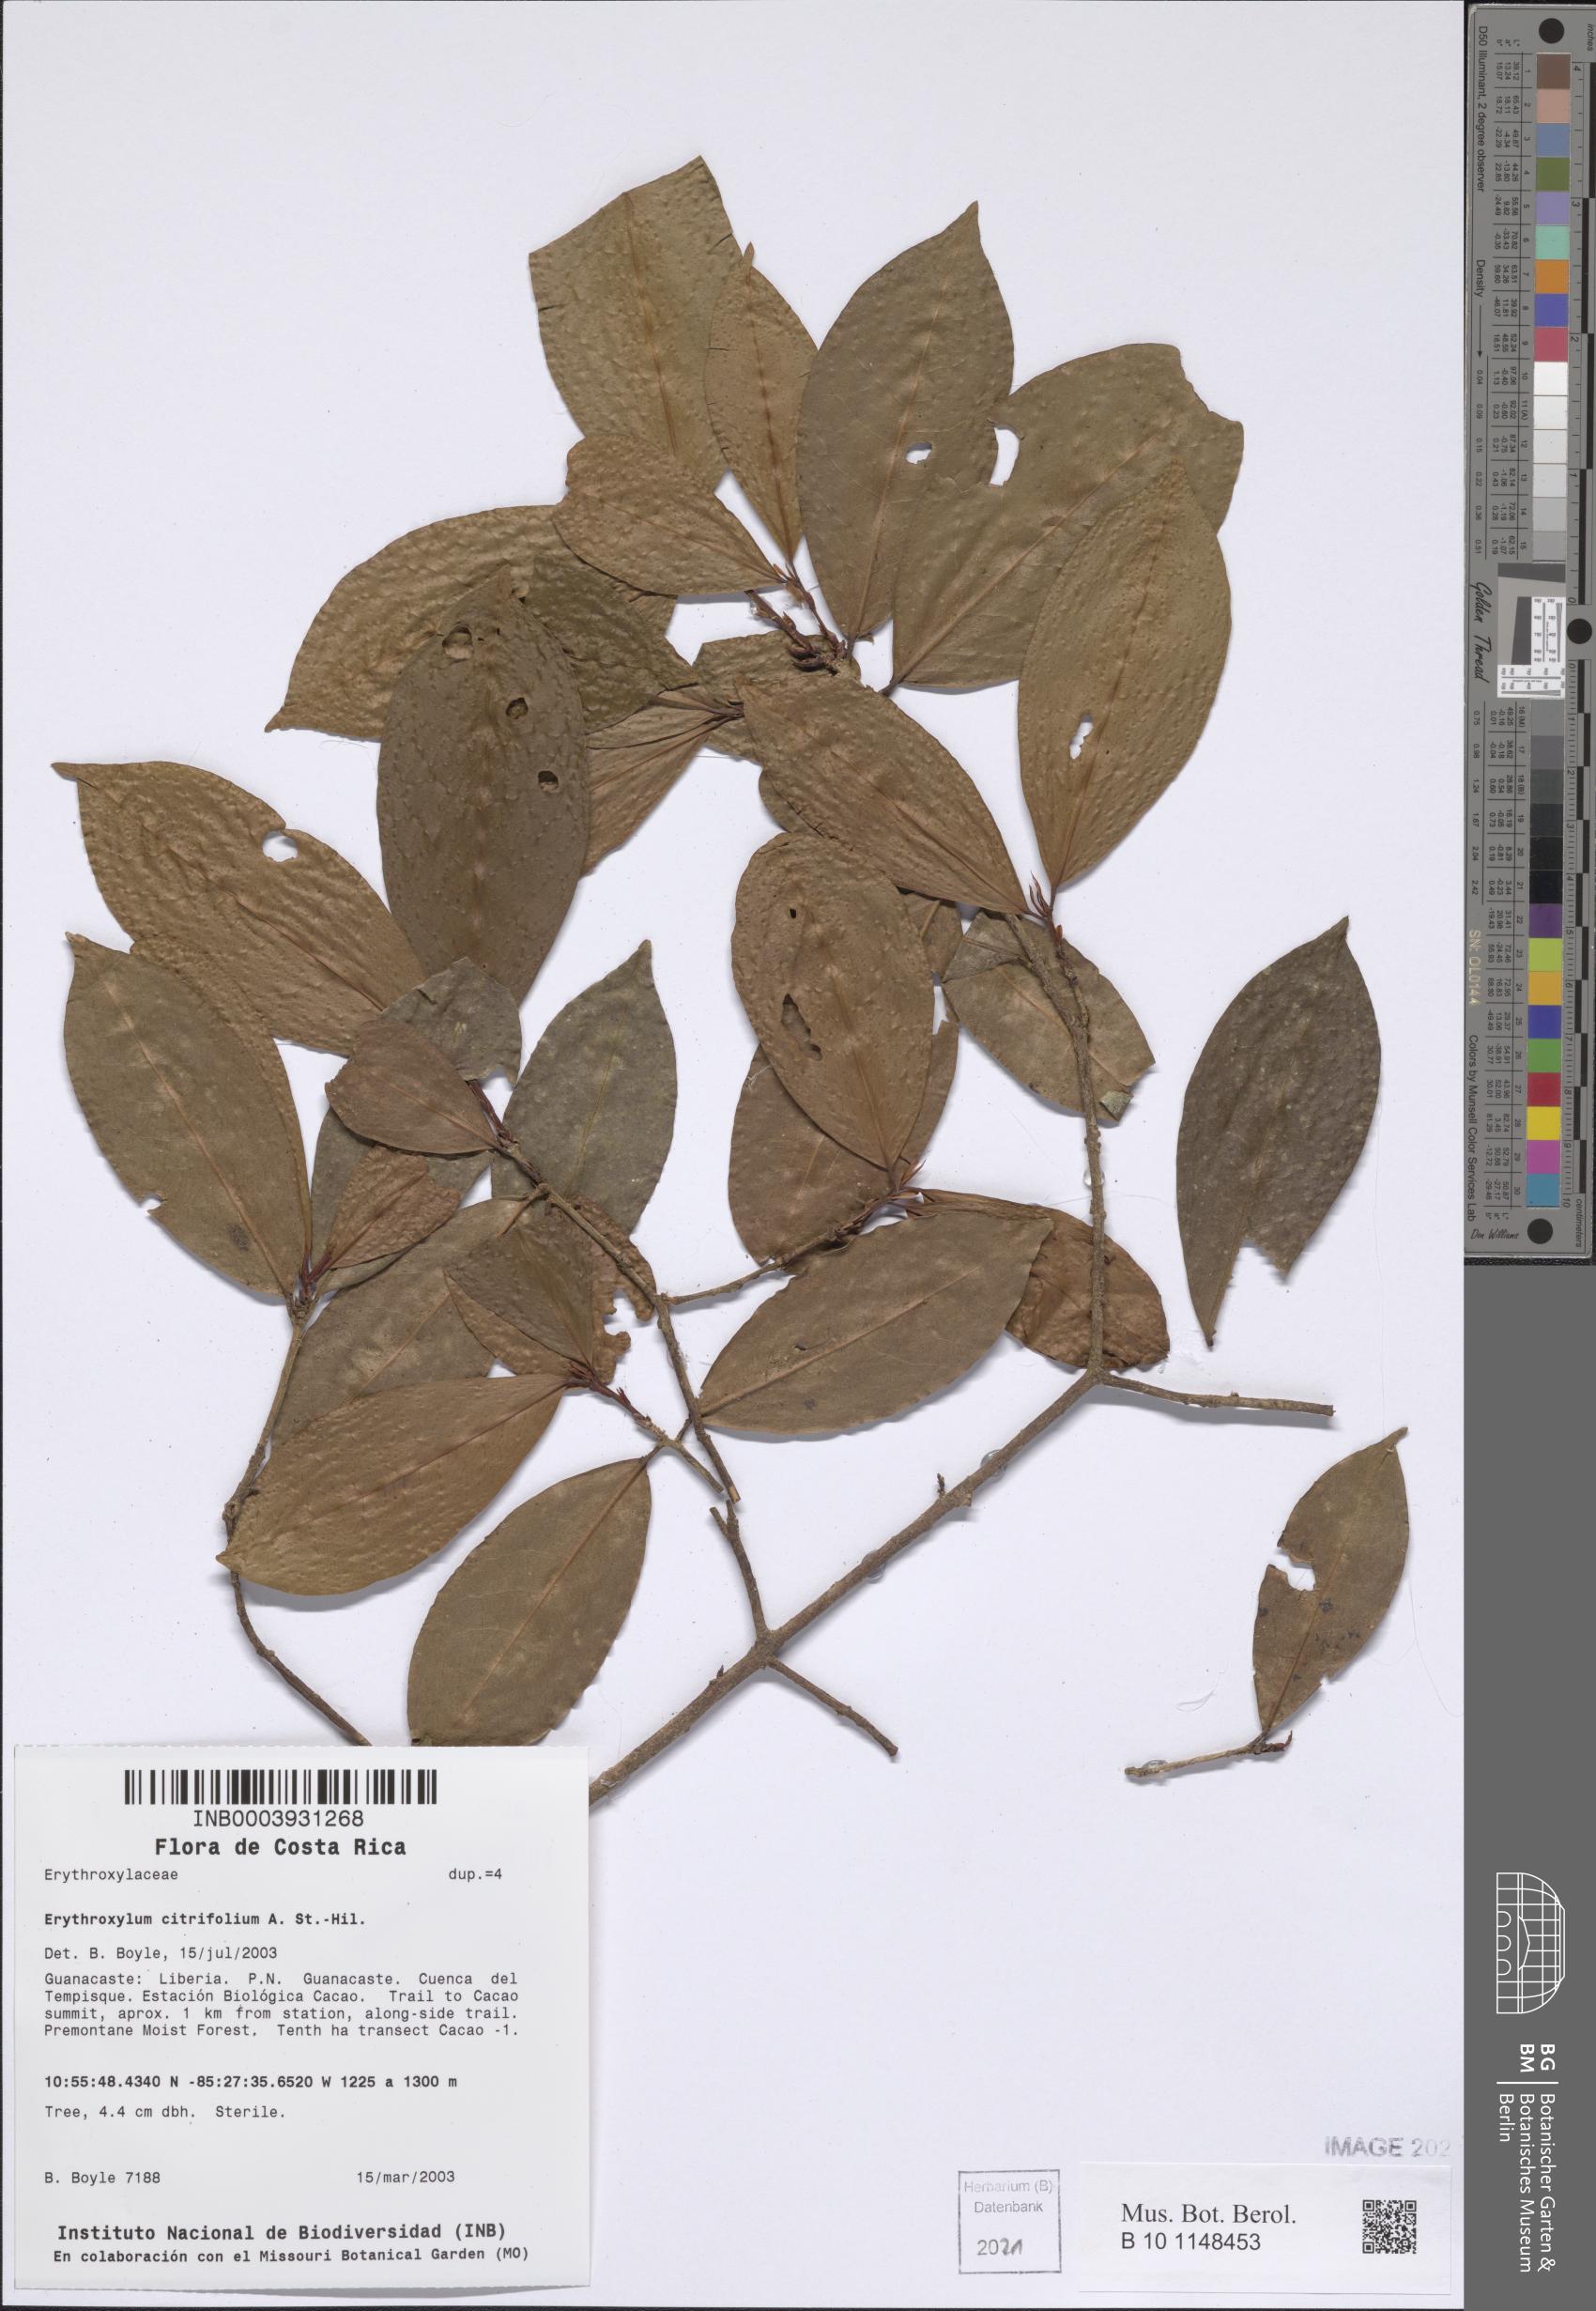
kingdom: Plantae
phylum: Tracheophyta
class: Magnoliopsida
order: Malpighiales
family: Erythroxylaceae
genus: Erythroxylum
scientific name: Erythroxylum citrifolium
